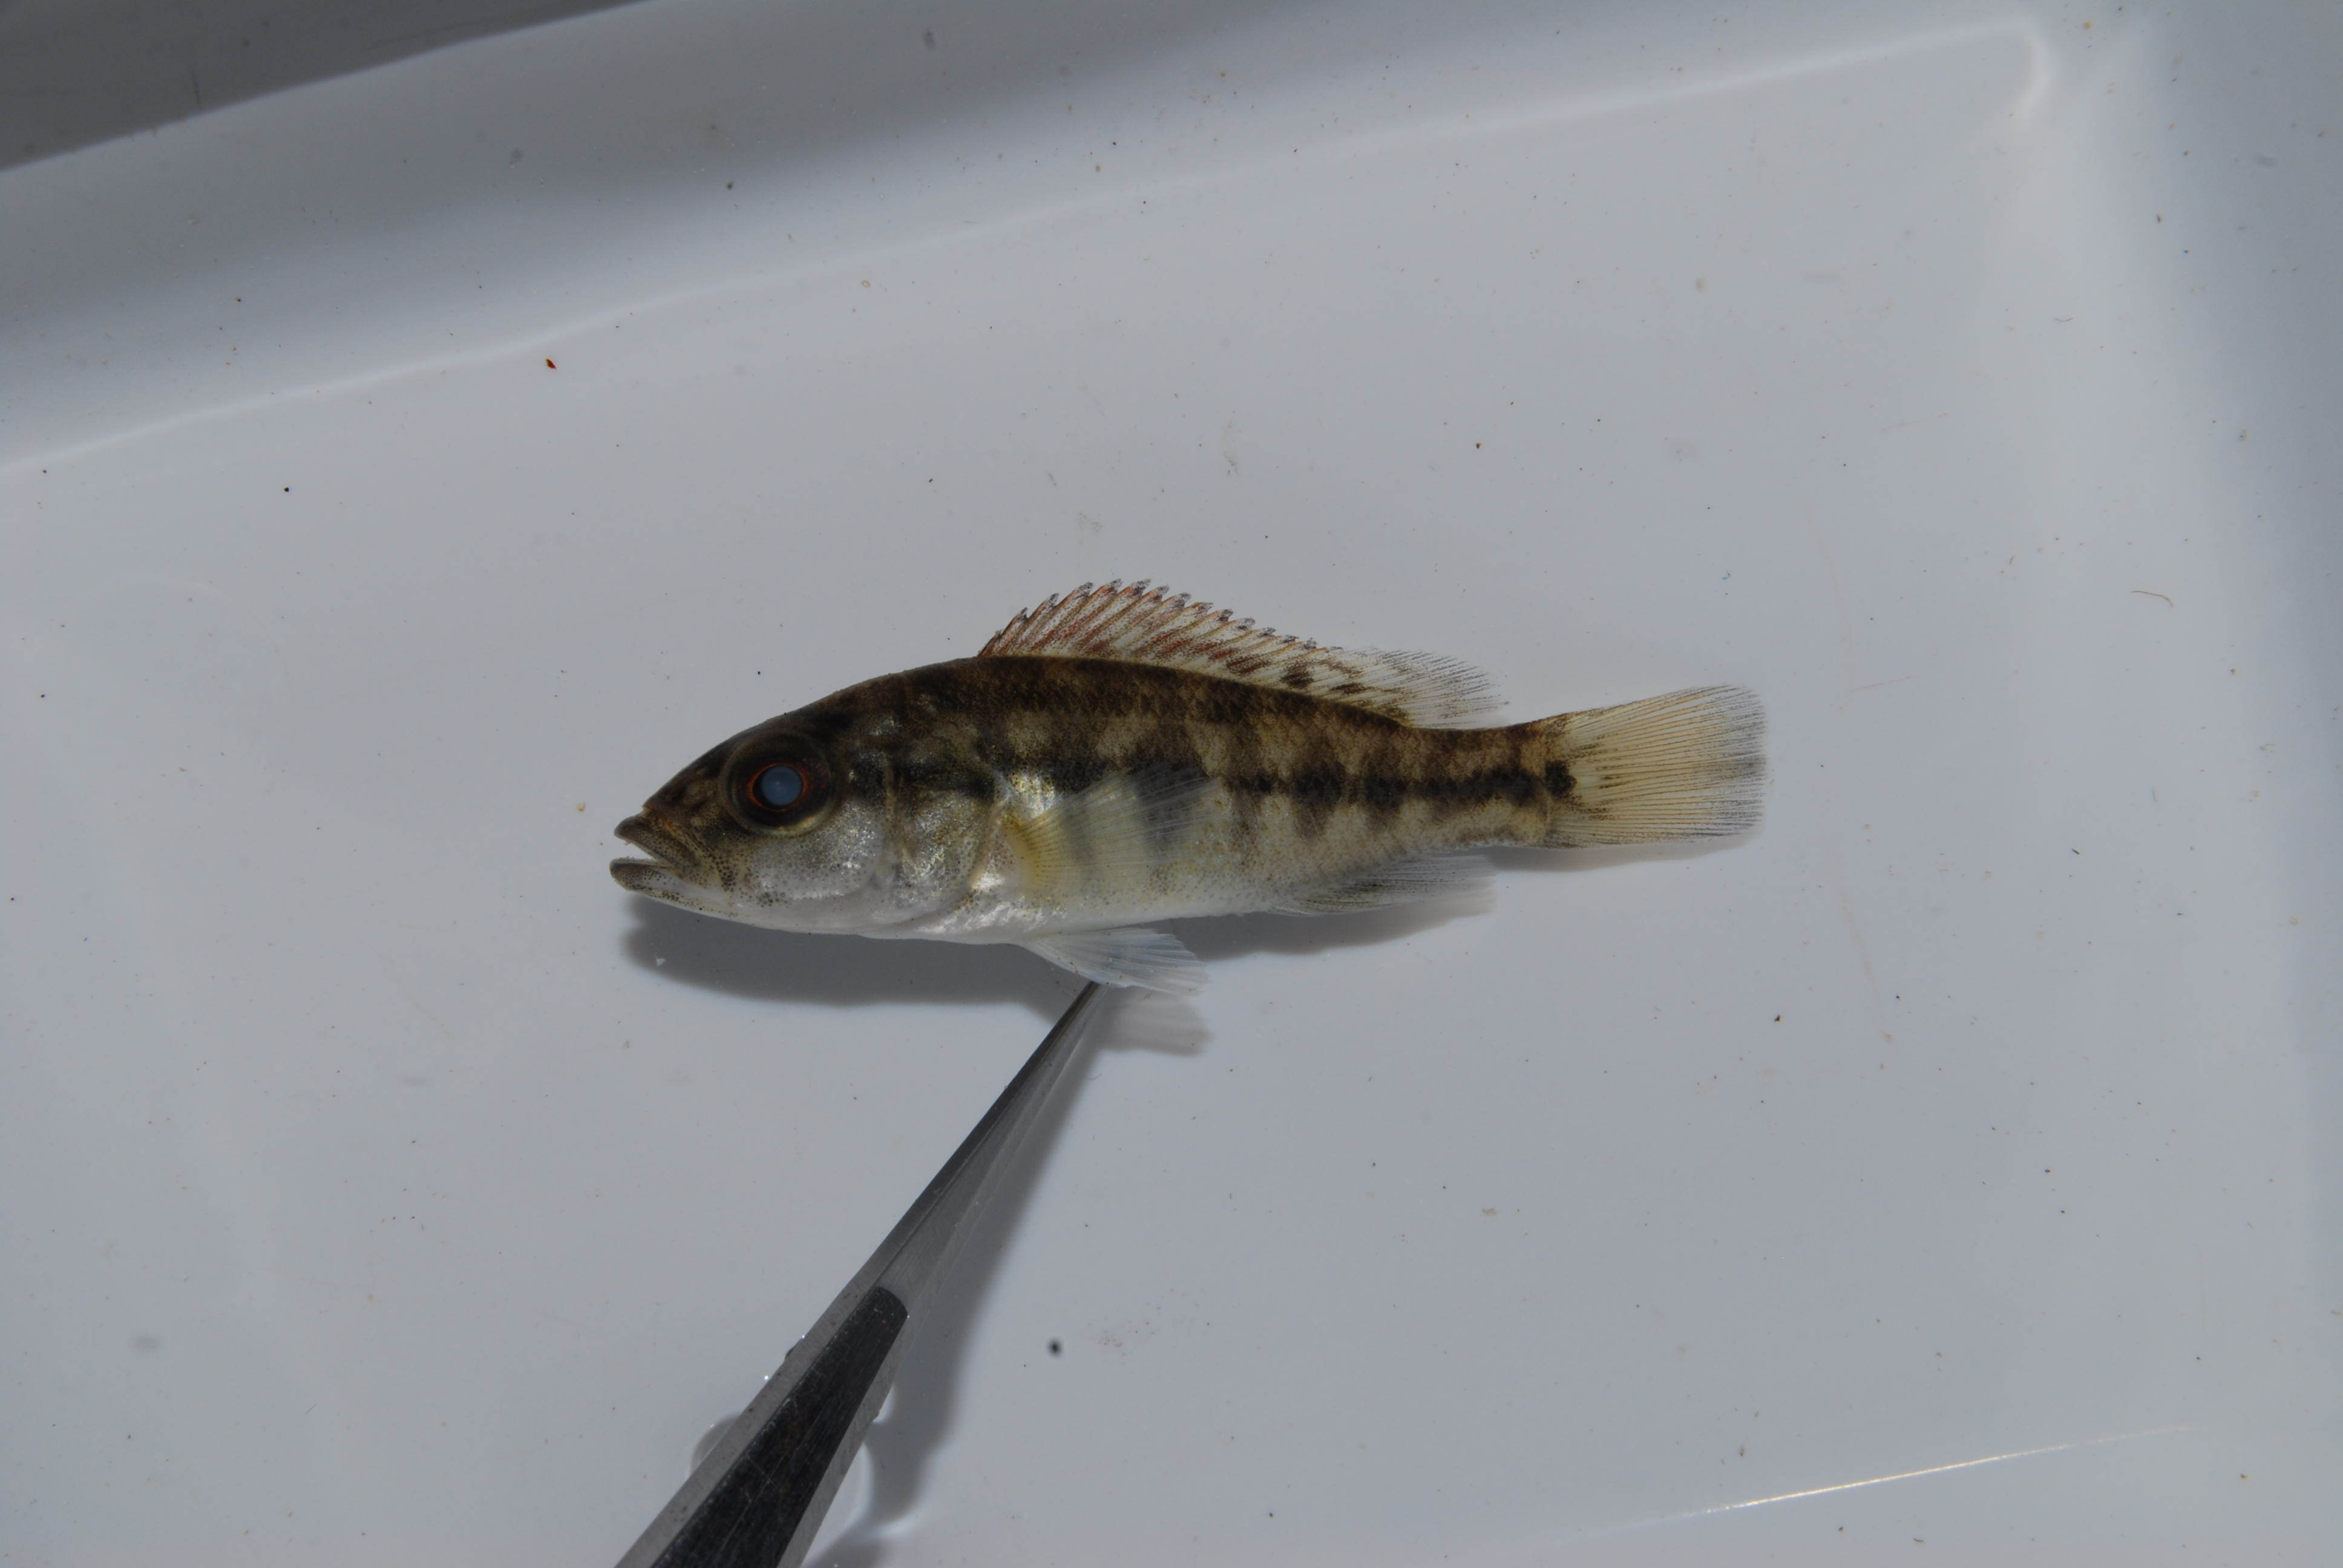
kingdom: Animalia
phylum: Chordata
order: Perciformes
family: Cichlidae
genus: Serranochromis
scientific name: Serranochromis macrocephalus
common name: Purpleface largemouth
